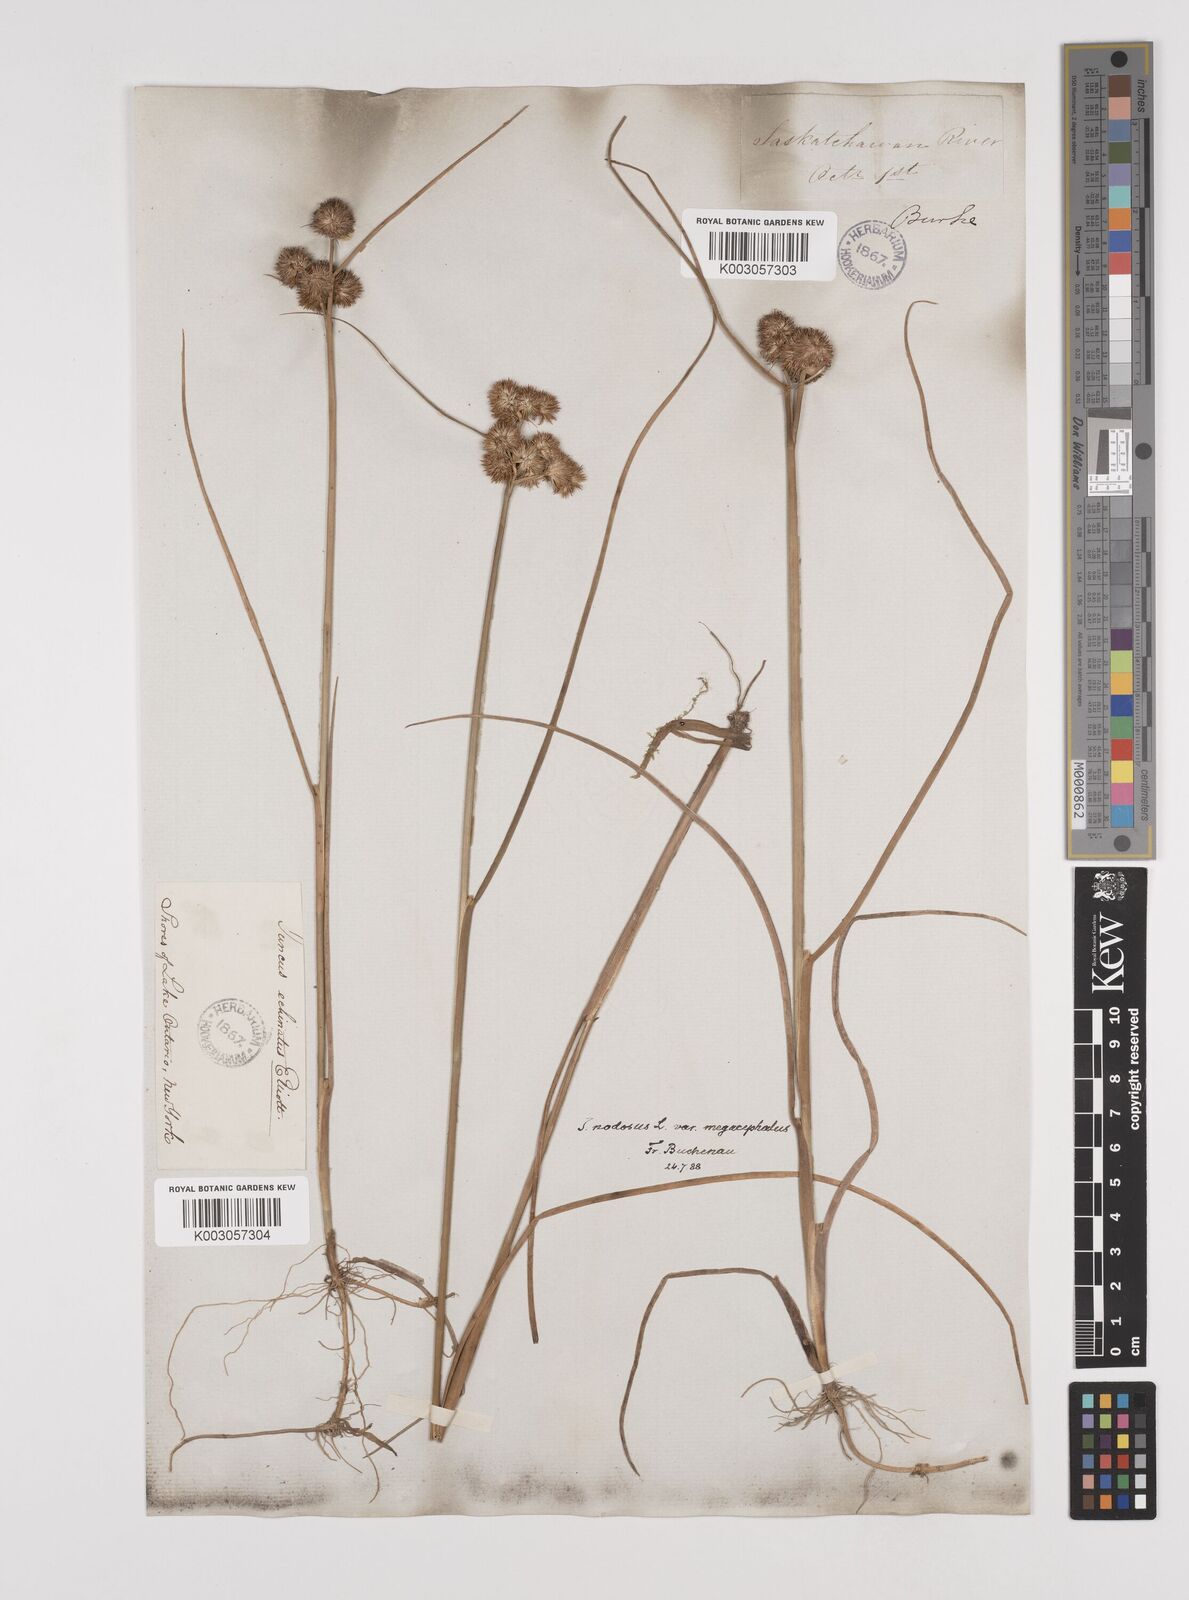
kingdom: Plantae
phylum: Tracheophyta
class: Liliopsida
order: Poales
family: Juncaceae
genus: Juncus
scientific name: Juncus nodosus
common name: Knotted rush
